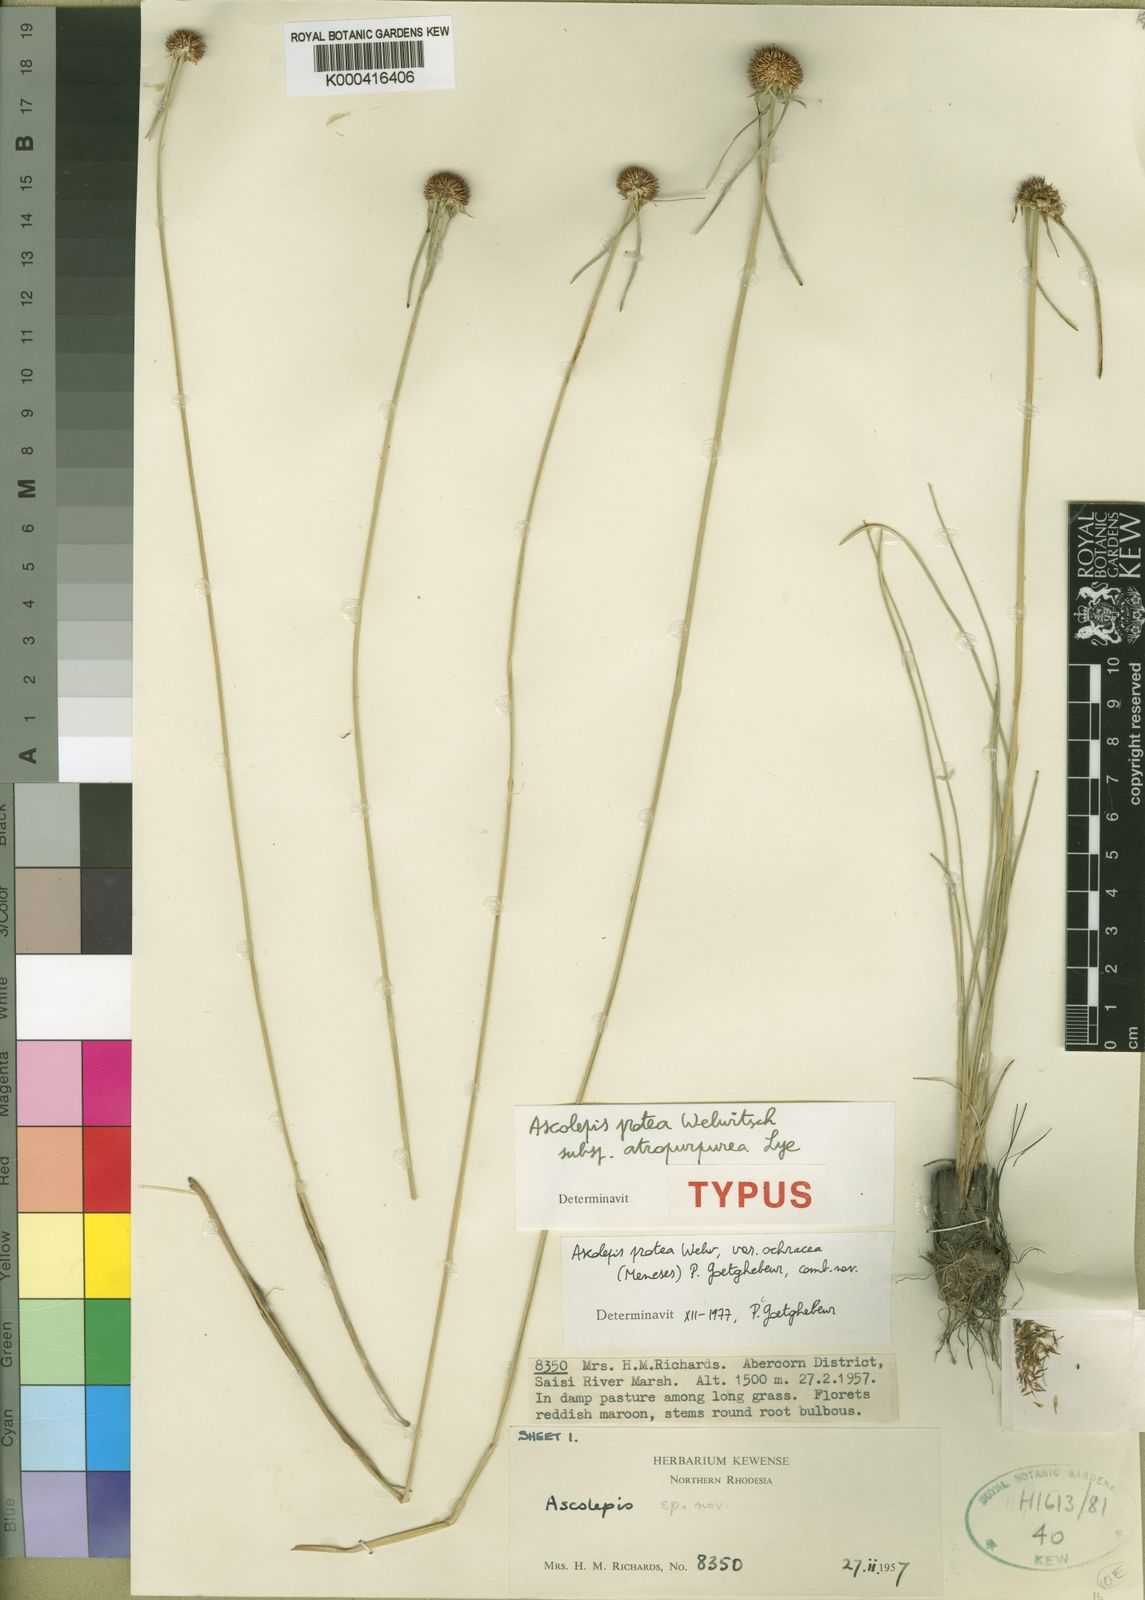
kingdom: Plantae
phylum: Tracheophyta
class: Liliopsida
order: Poales
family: Cyperaceae
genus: Cyperus
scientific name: Cyperus proteus
